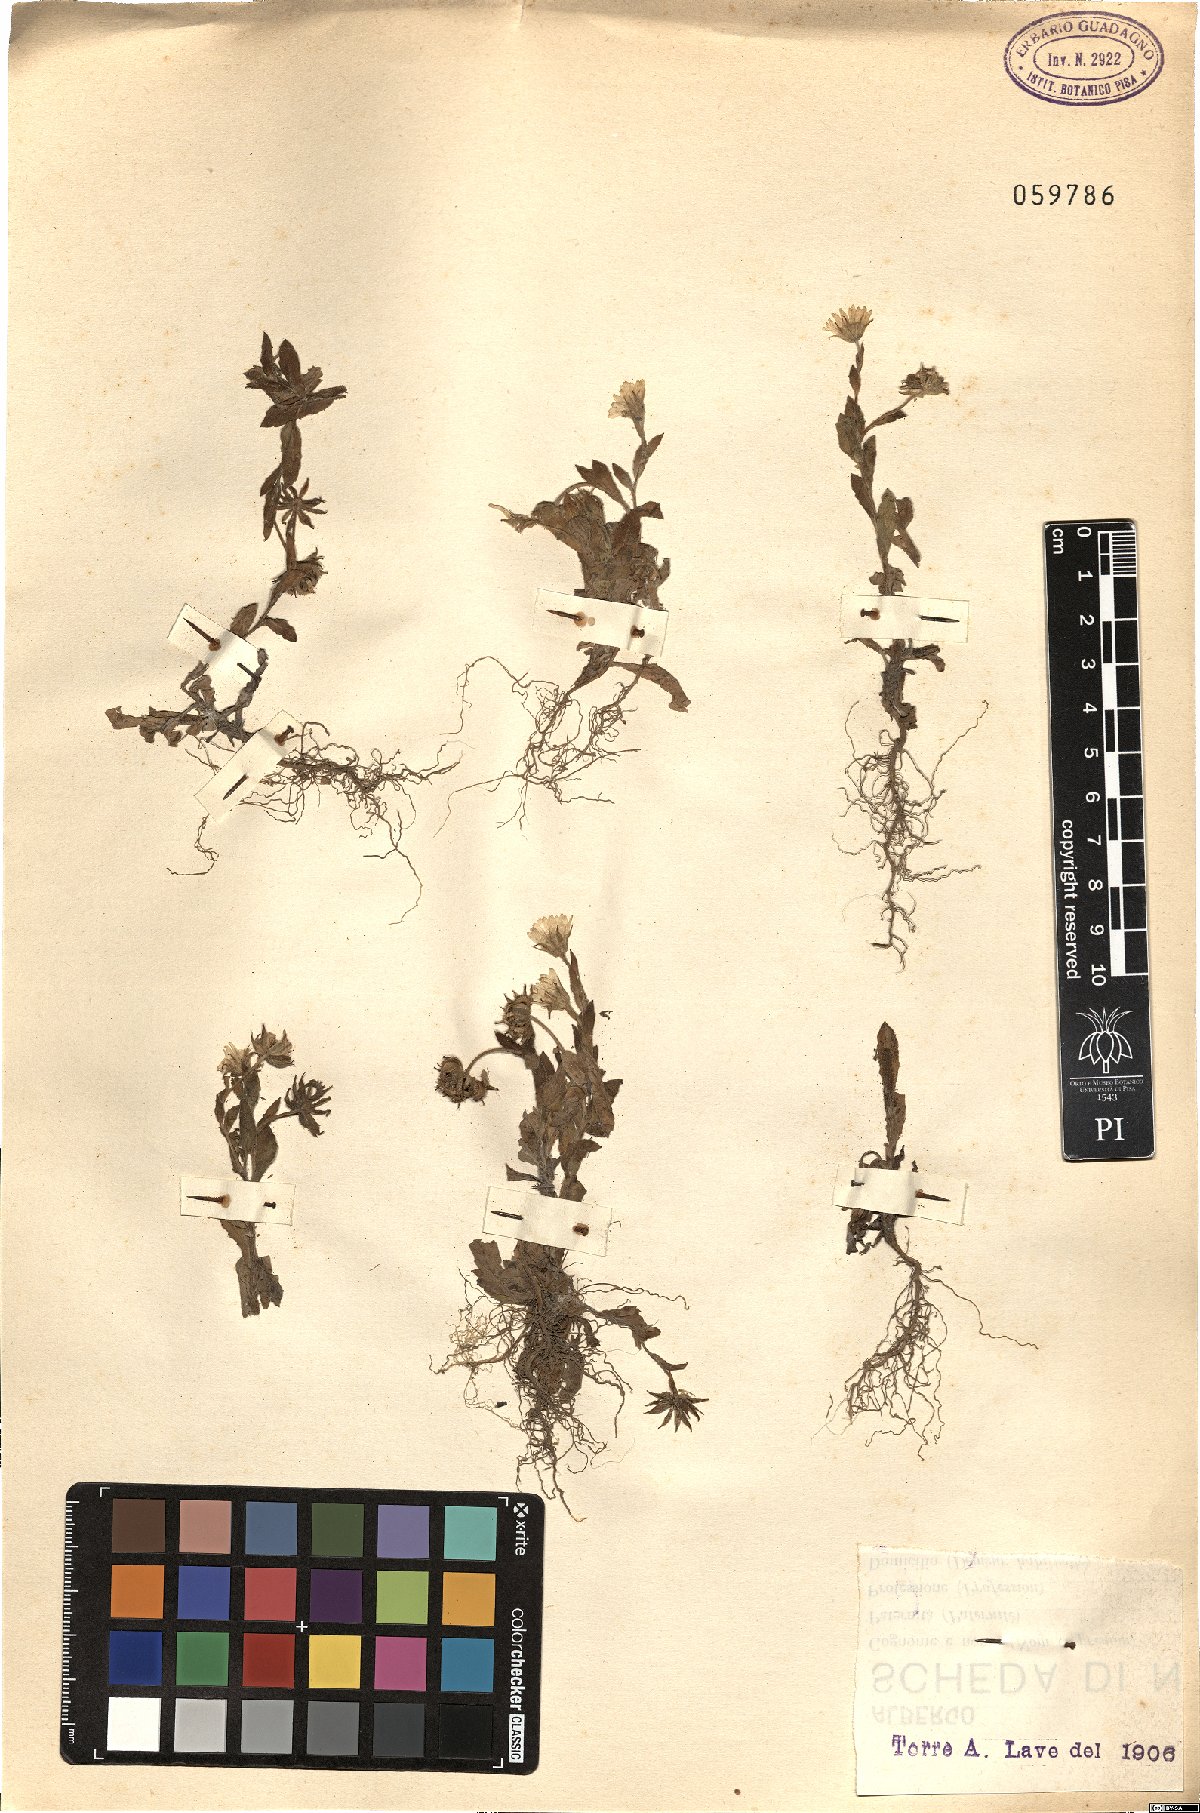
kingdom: Plantae
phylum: Tracheophyta
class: Magnoliopsida
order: Asterales
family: Asteraceae
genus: Calendula
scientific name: Calendula arvensis
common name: Field marigold
